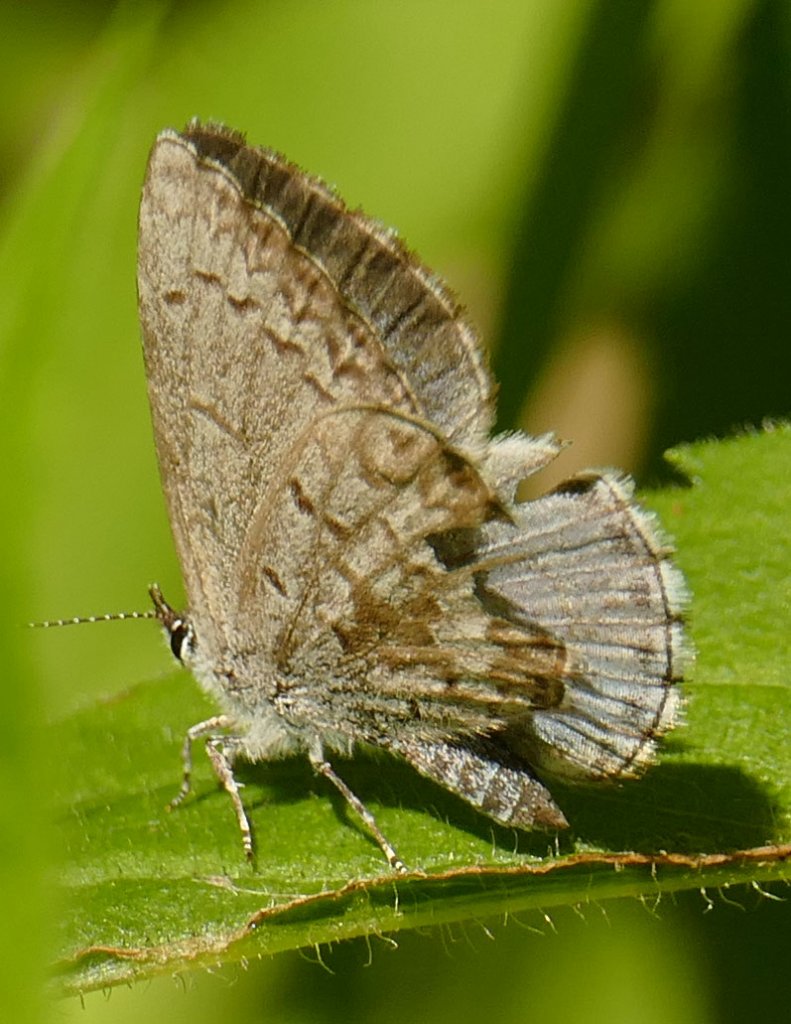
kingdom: Animalia
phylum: Arthropoda
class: Insecta
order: Lepidoptera
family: Lycaenidae
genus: Celastrina
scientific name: Celastrina lucia
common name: Northern Spring Azure
